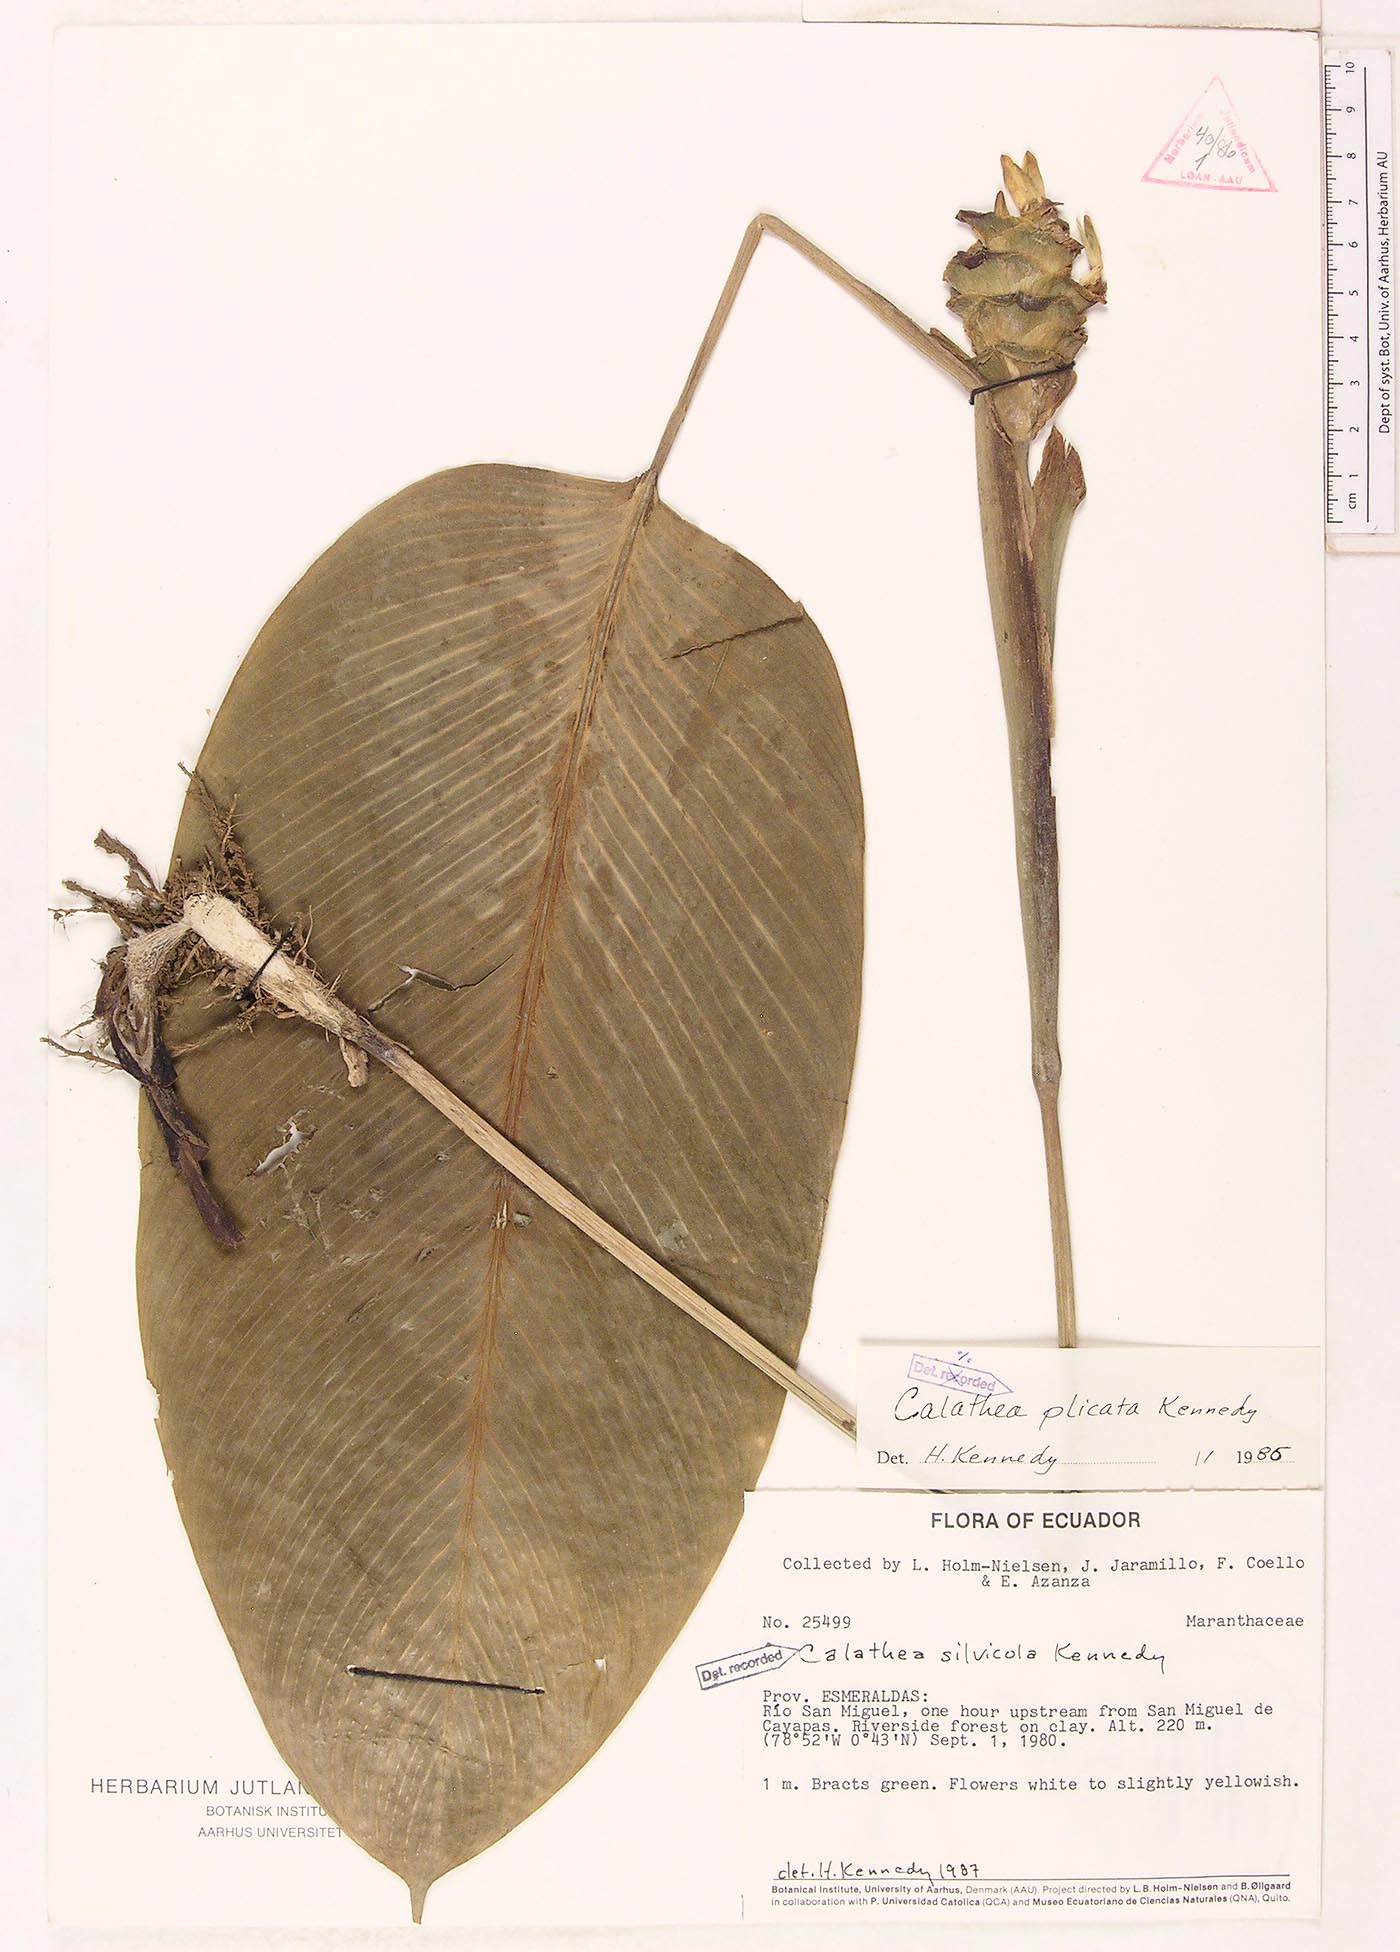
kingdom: Plantae
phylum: Tracheophyta
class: Liliopsida
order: Zingiberales
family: Marantaceae
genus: Goeppertia
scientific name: Goeppertia silvicola
